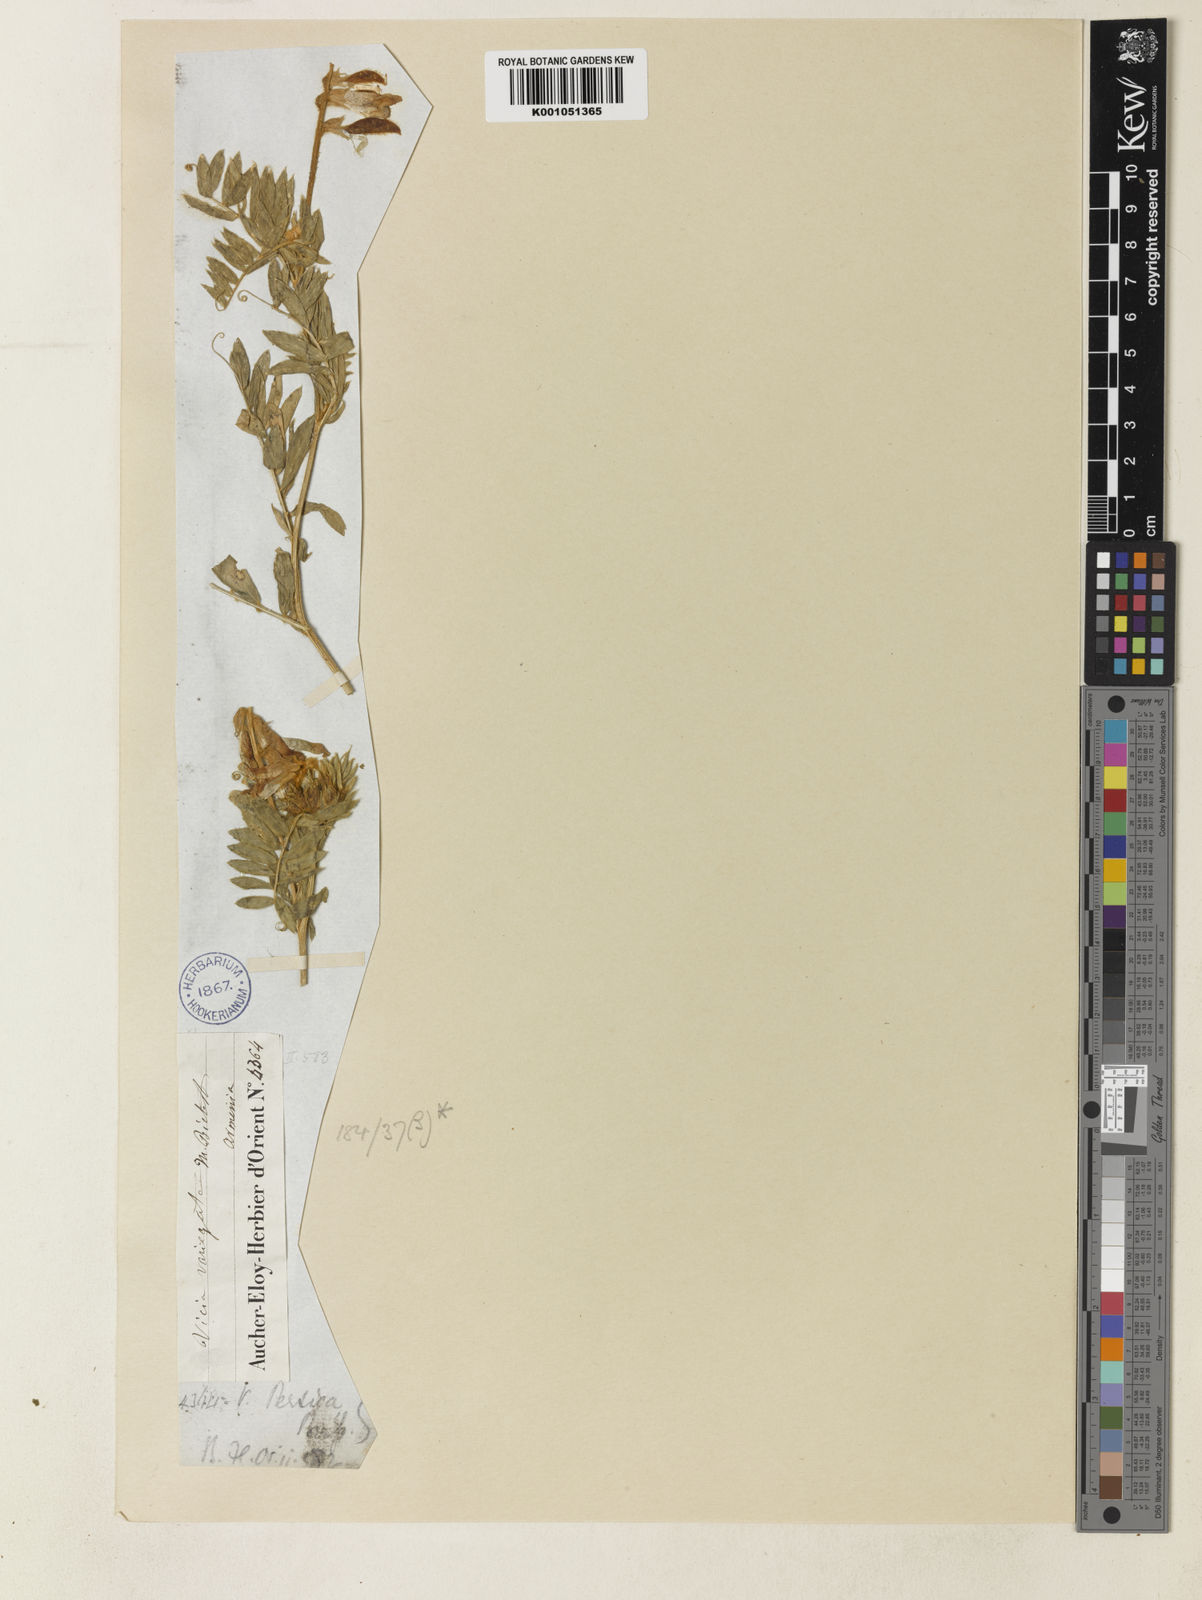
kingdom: Plantae
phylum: Tracheophyta
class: Magnoliopsida
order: Fabales
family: Fabaceae
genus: Vicia
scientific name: Vicia dumetorum
